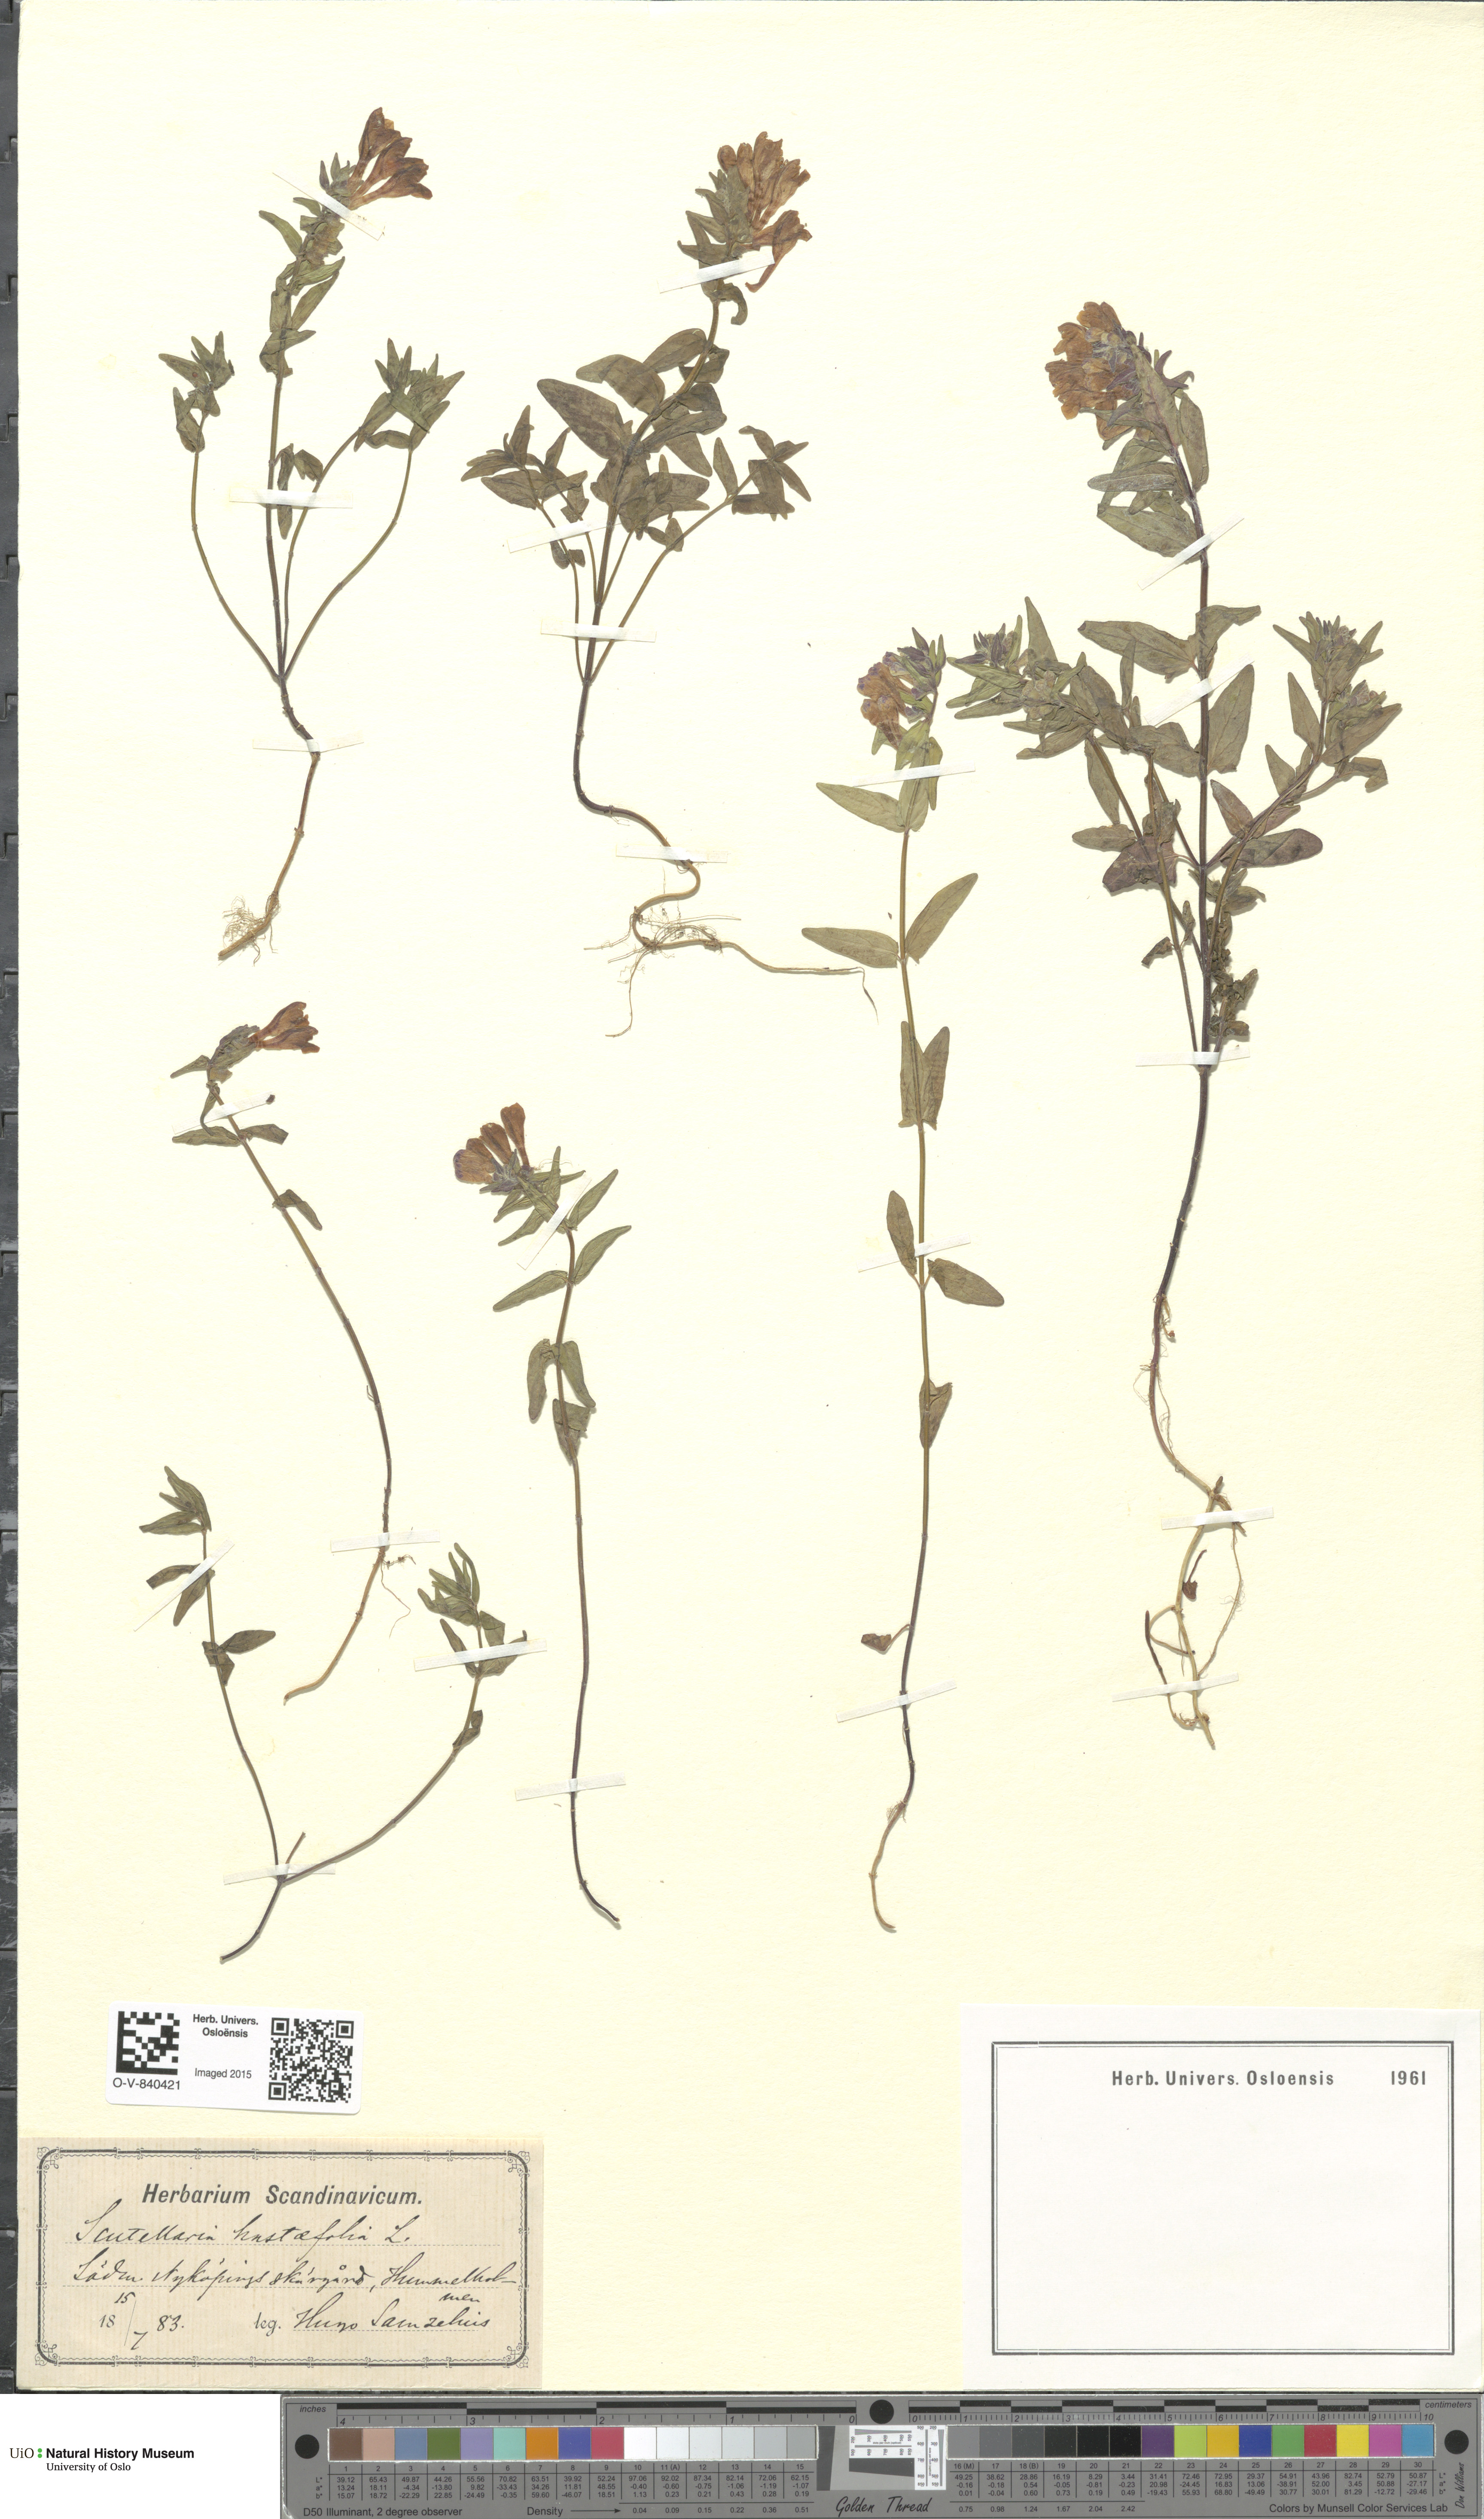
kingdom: Plantae
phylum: Tracheophyta
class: Magnoliopsida
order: Lamiales
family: Lamiaceae
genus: Scutellaria
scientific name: Scutellaria hastifolia
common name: Norfolk skullcap
